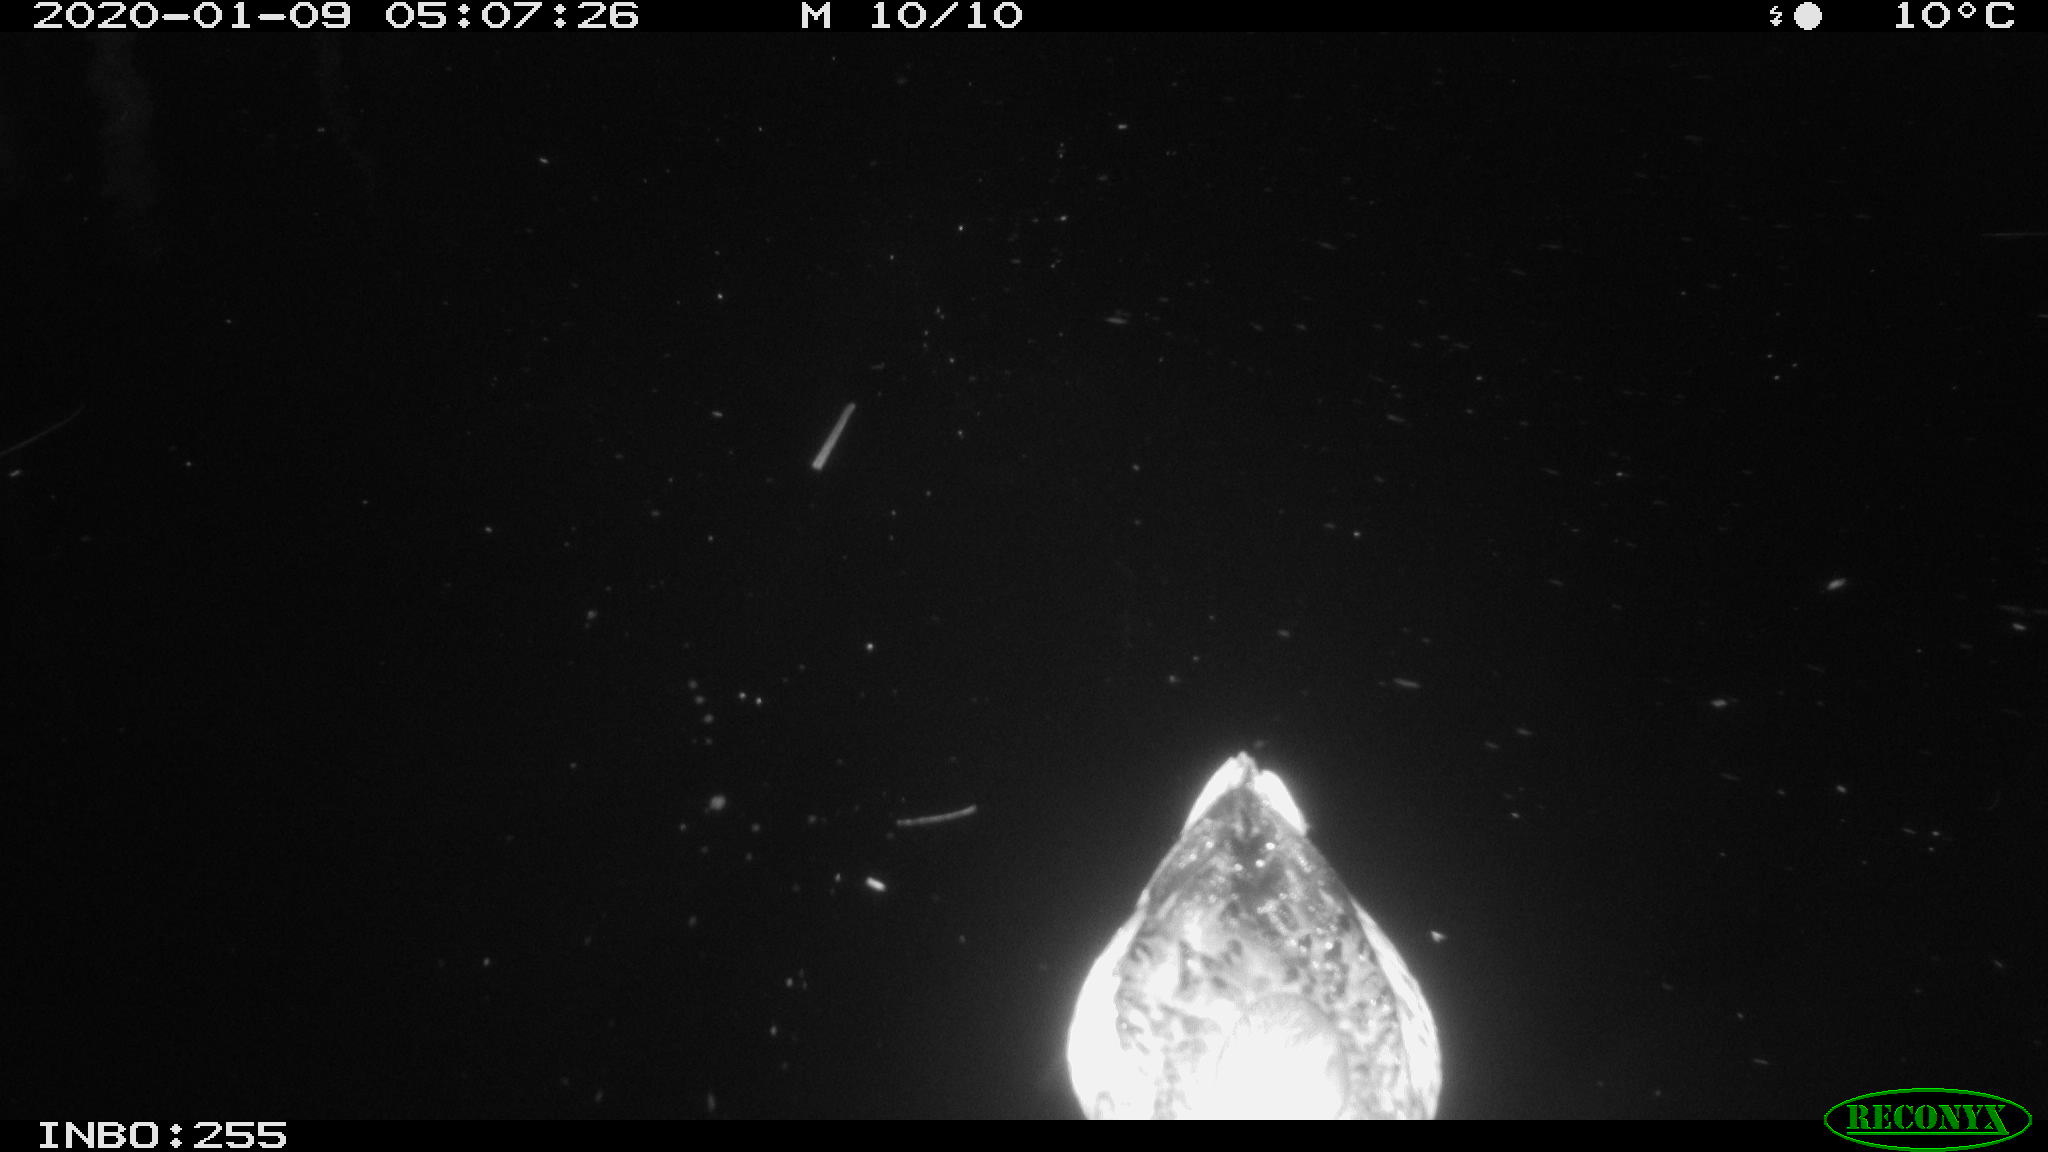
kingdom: Animalia
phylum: Chordata
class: Aves
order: Anseriformes
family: Anatidae
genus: Anas
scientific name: Anas platyrhynchos
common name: Mallard
